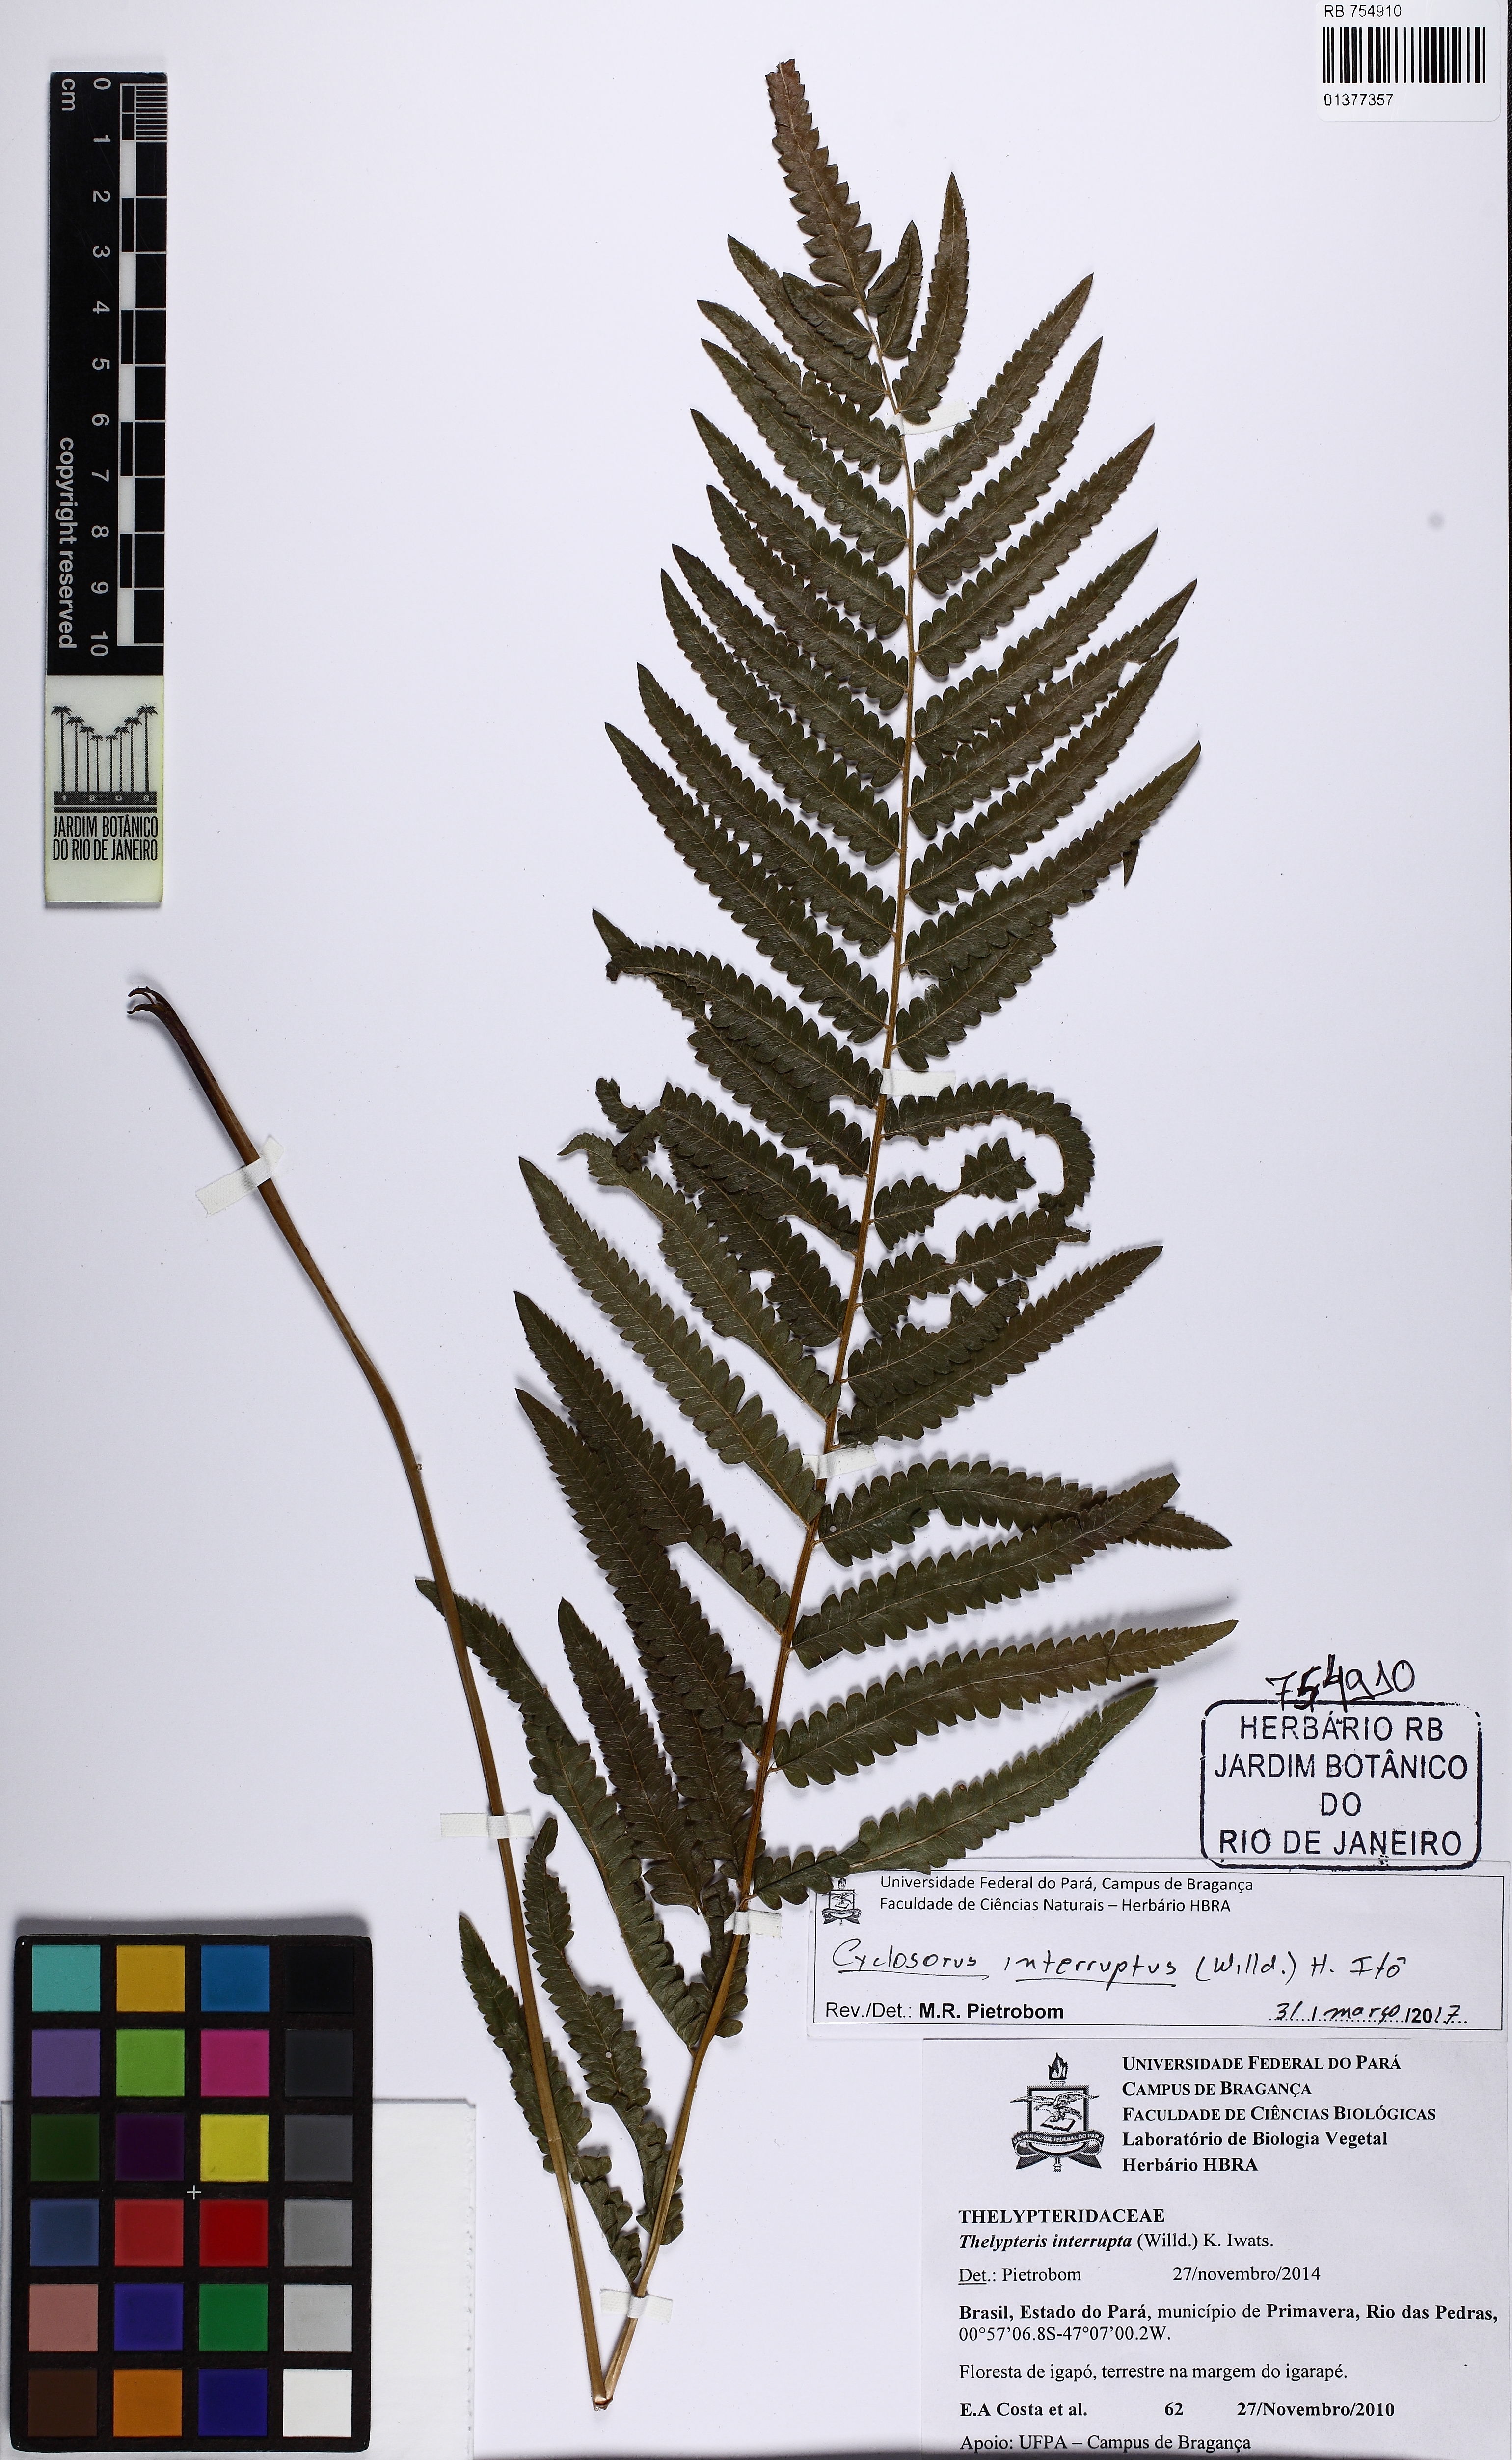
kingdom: Plantae
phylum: Tracheophyta
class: Polypodiopsida
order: Polypodiales
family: Thelypteridaceae
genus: Cyclosorus
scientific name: Cyclosorus interruptus
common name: Neke fern
